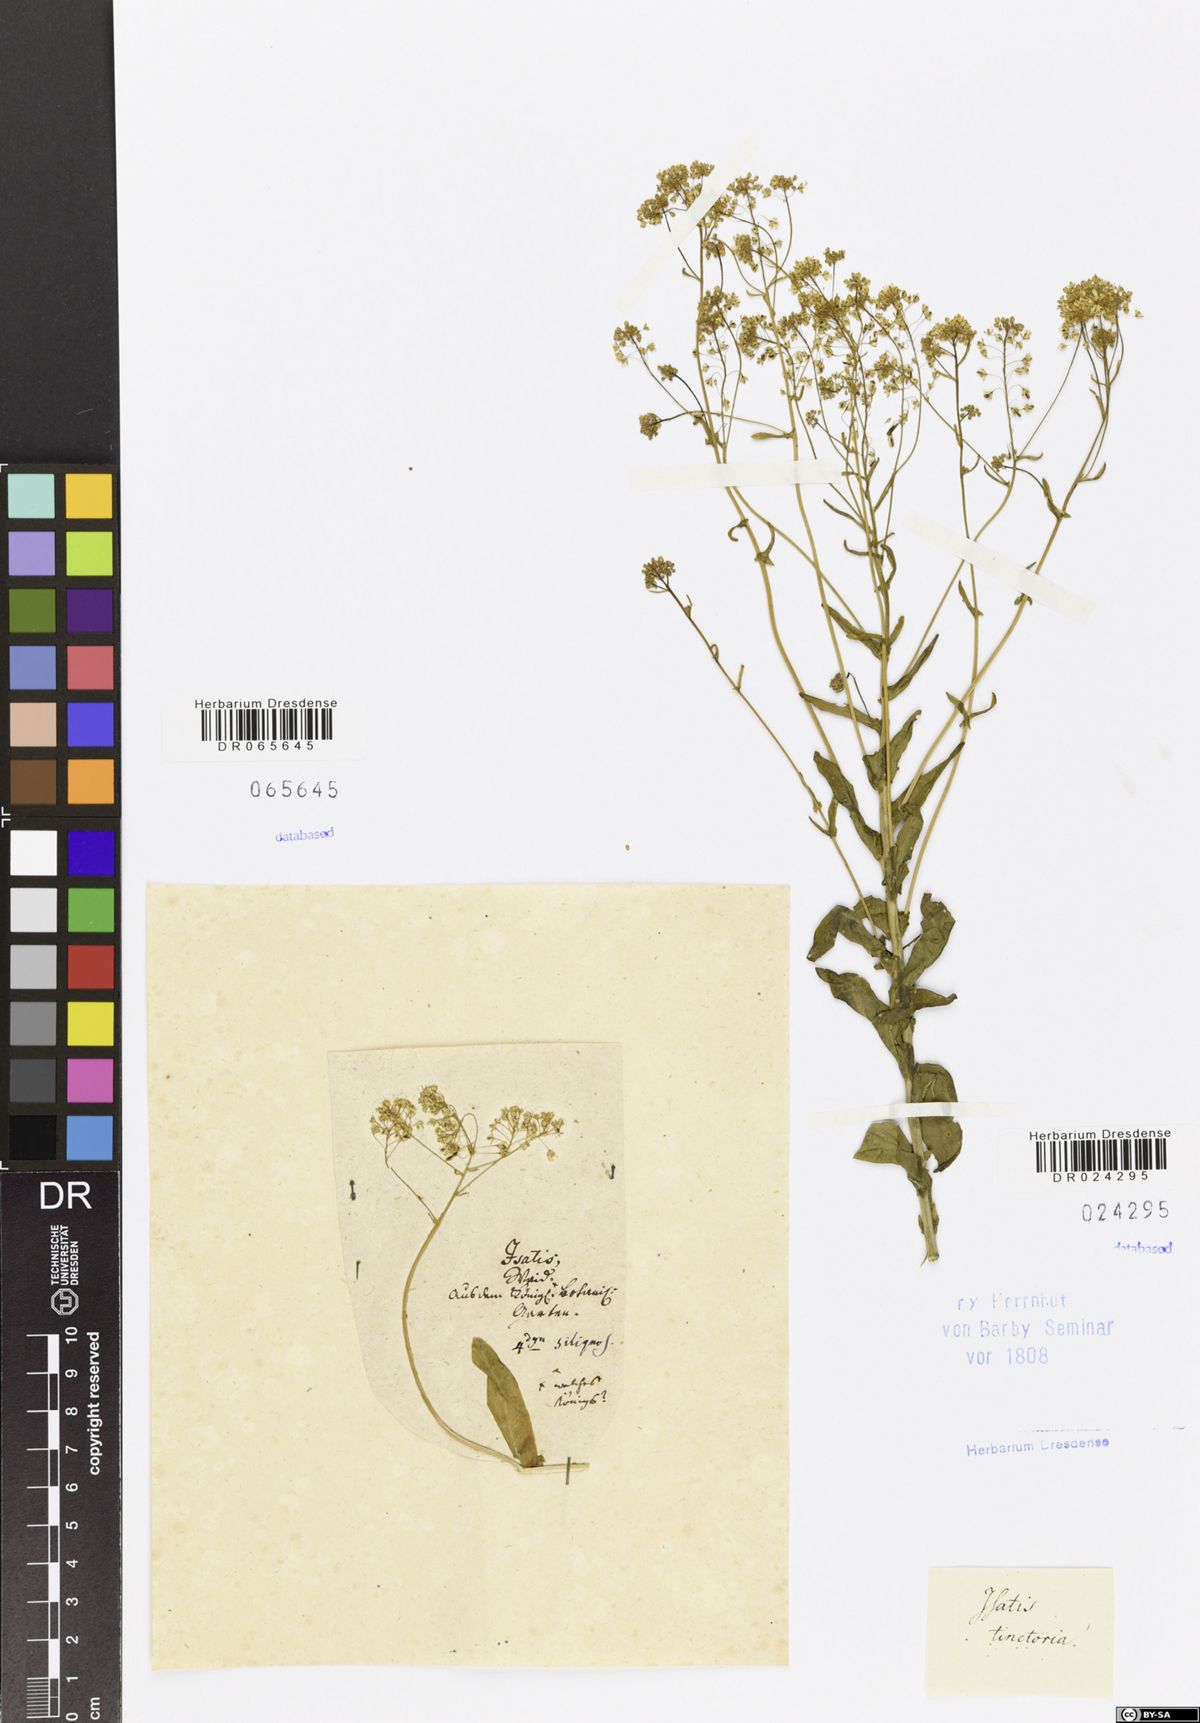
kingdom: Plantae
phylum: Tracheophyta
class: Magnoliopsida
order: Brassicales
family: Brassicaceae
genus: Isatis
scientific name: Isatis tinctoria
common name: Woad
